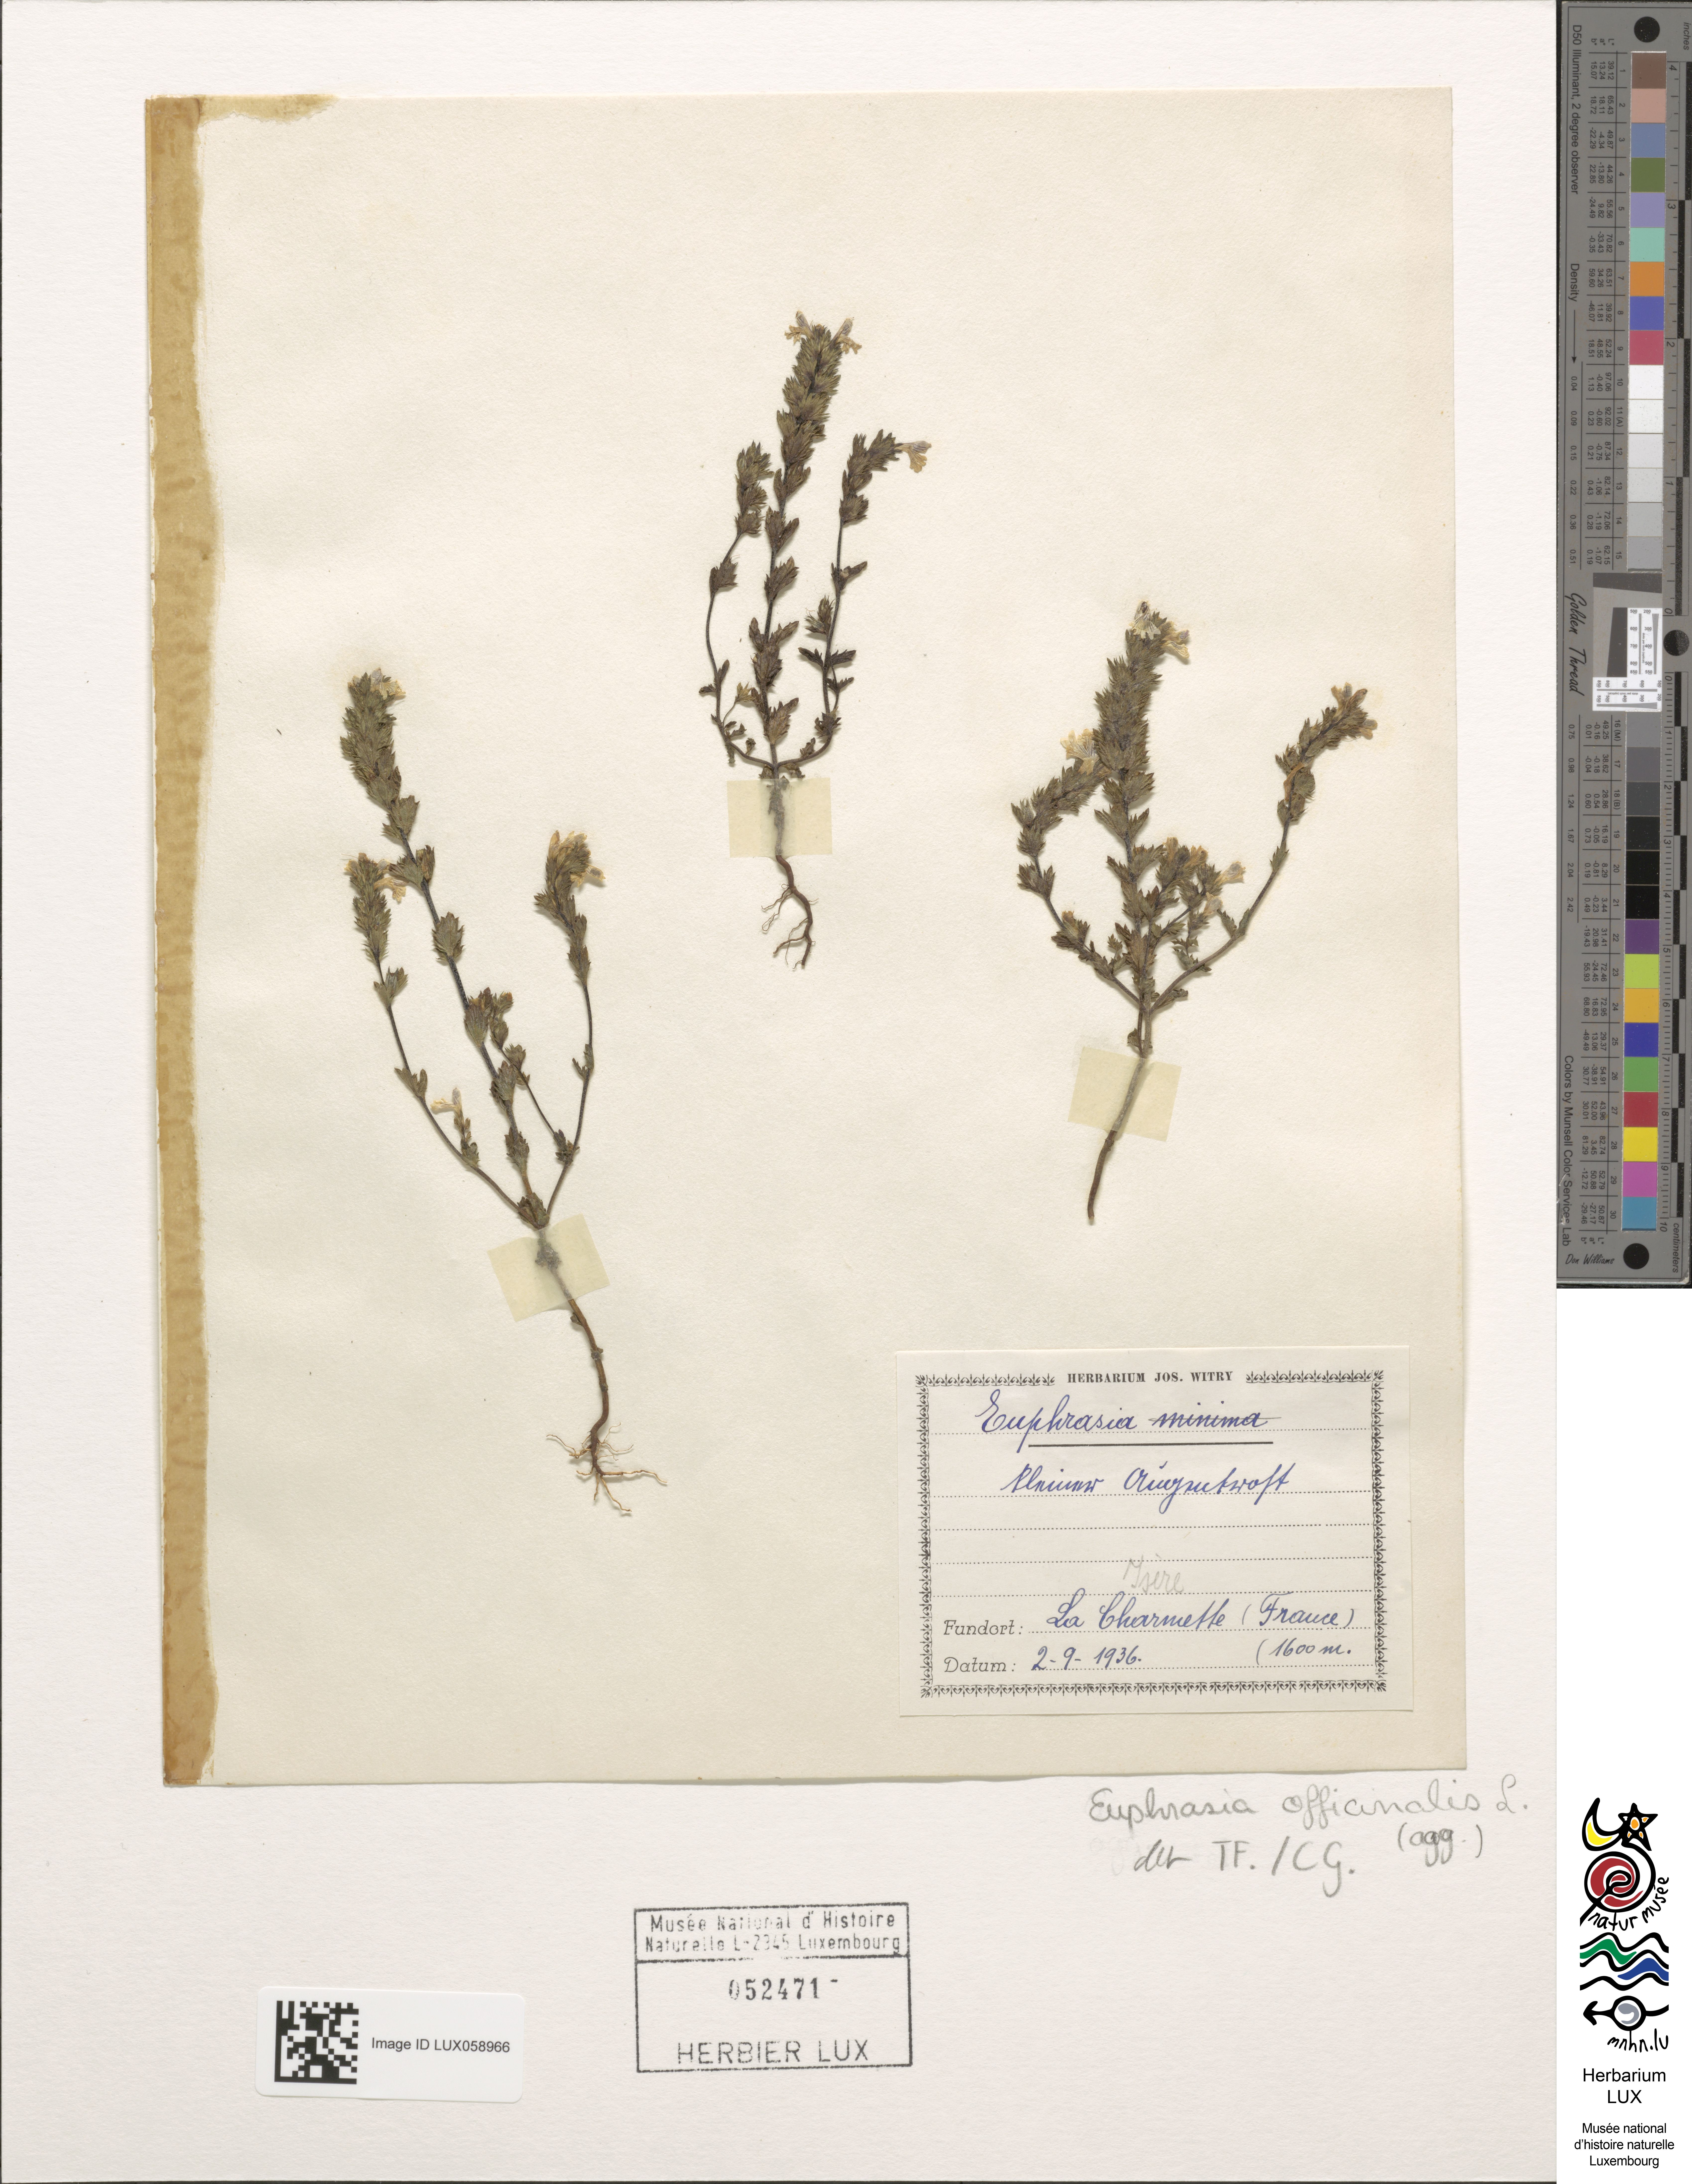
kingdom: Plantae
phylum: Tracheophyta
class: Magnoliopsida
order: Lamiales
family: Orobanchaceae
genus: Euphrasia
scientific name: Euphrasia officinalis
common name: Eyebright
